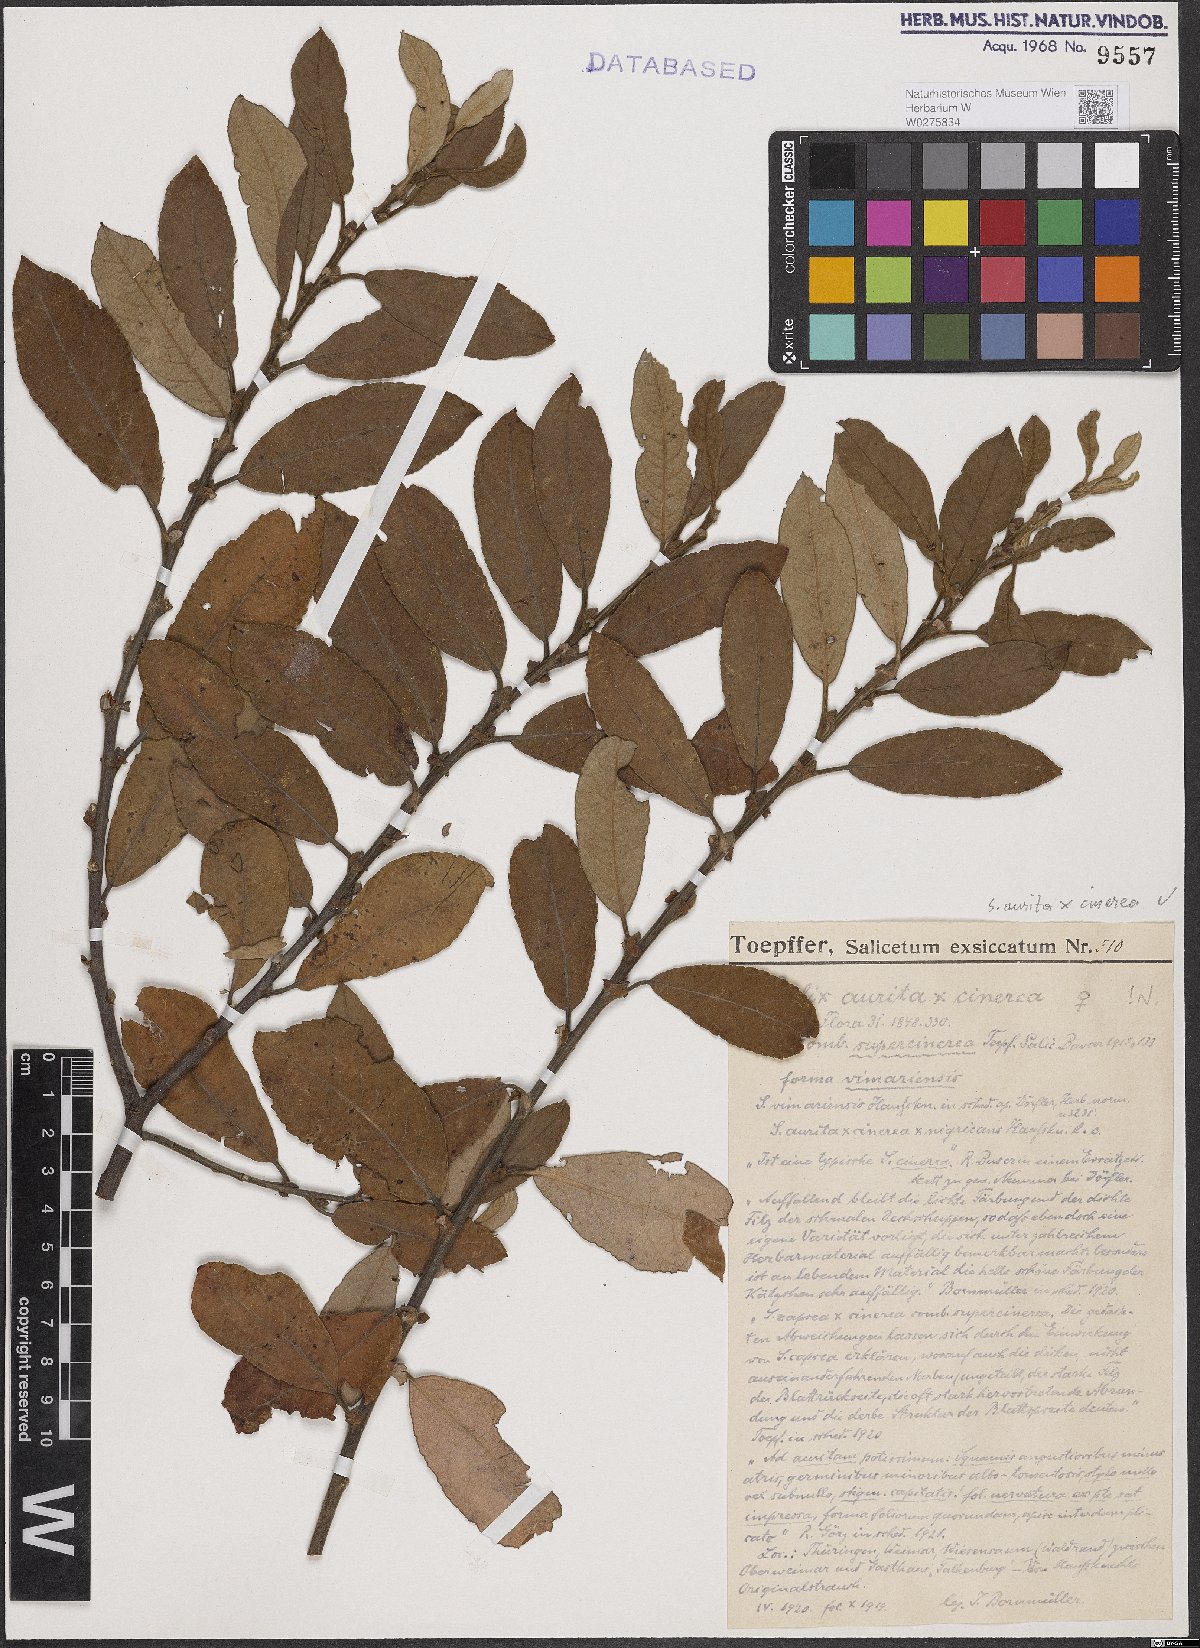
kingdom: Plantae
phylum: Tracheophyta
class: Magnoliopsida
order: Malpighiales
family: Salicaceae
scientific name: Salicaceae
